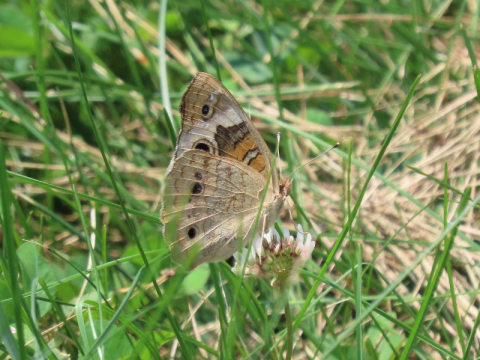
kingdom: Animalia
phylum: Arthropoda
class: Insecta
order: Lepidoptera
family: Nymphalidae
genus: Junonia
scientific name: Junonia coenia
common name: Common Buckeye
